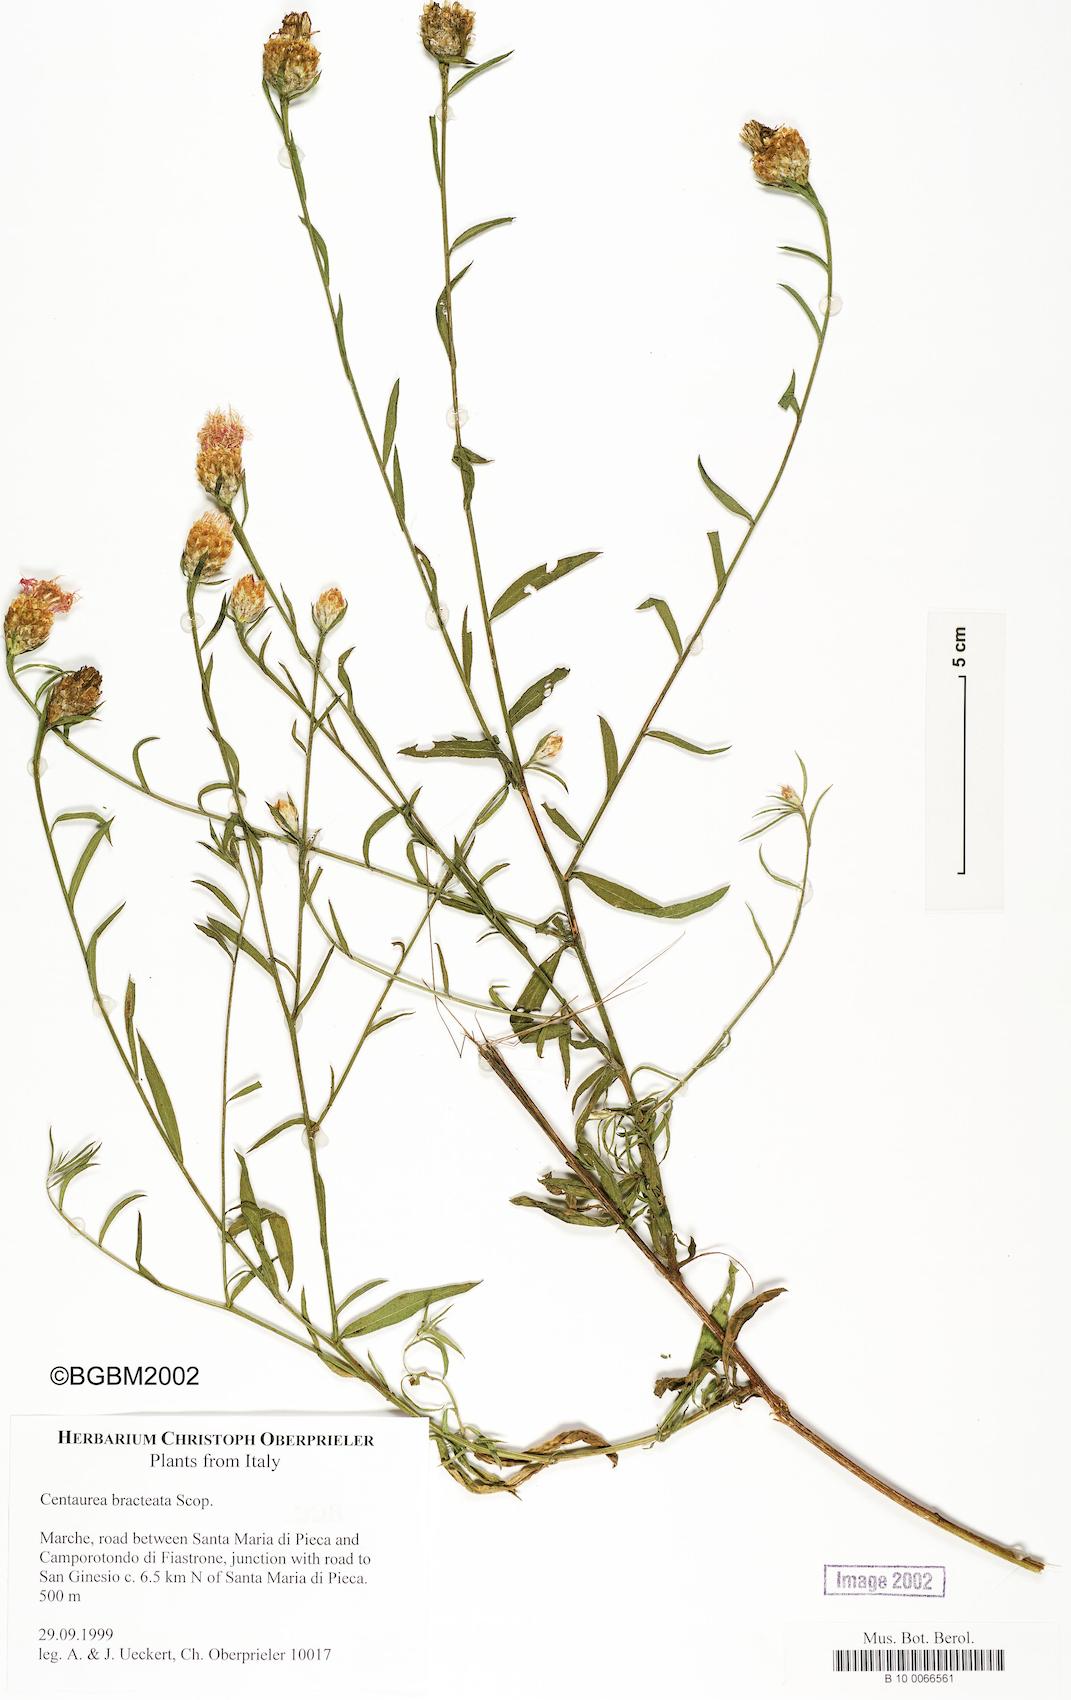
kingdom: Plantae
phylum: Tracheophyta
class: Magnoliopsida
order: Asterales
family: Asteraceae
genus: Centaurea
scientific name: Centaurea jacea
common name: Brown knapweed
